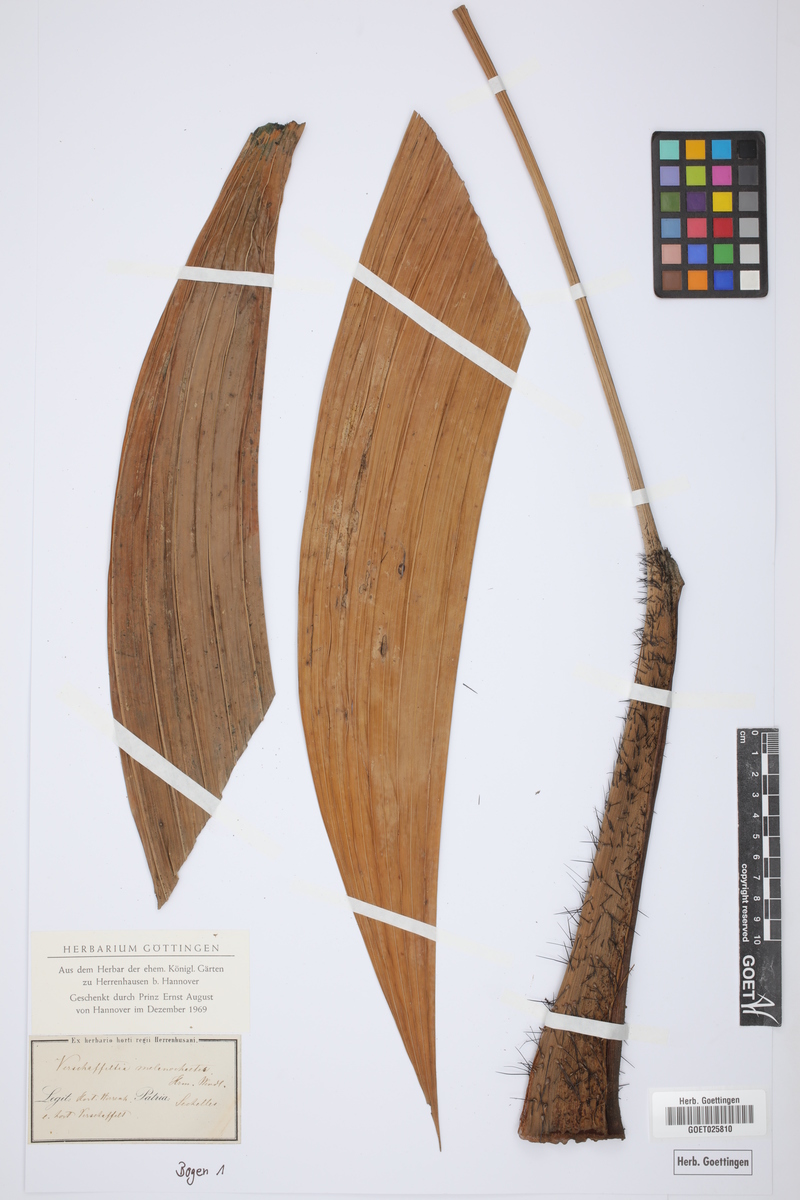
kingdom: Plantae
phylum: Tracheophyta
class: Liliopsida
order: Arecales
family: Arecaceae
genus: Roscheria
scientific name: Roscheria melanochaetes
